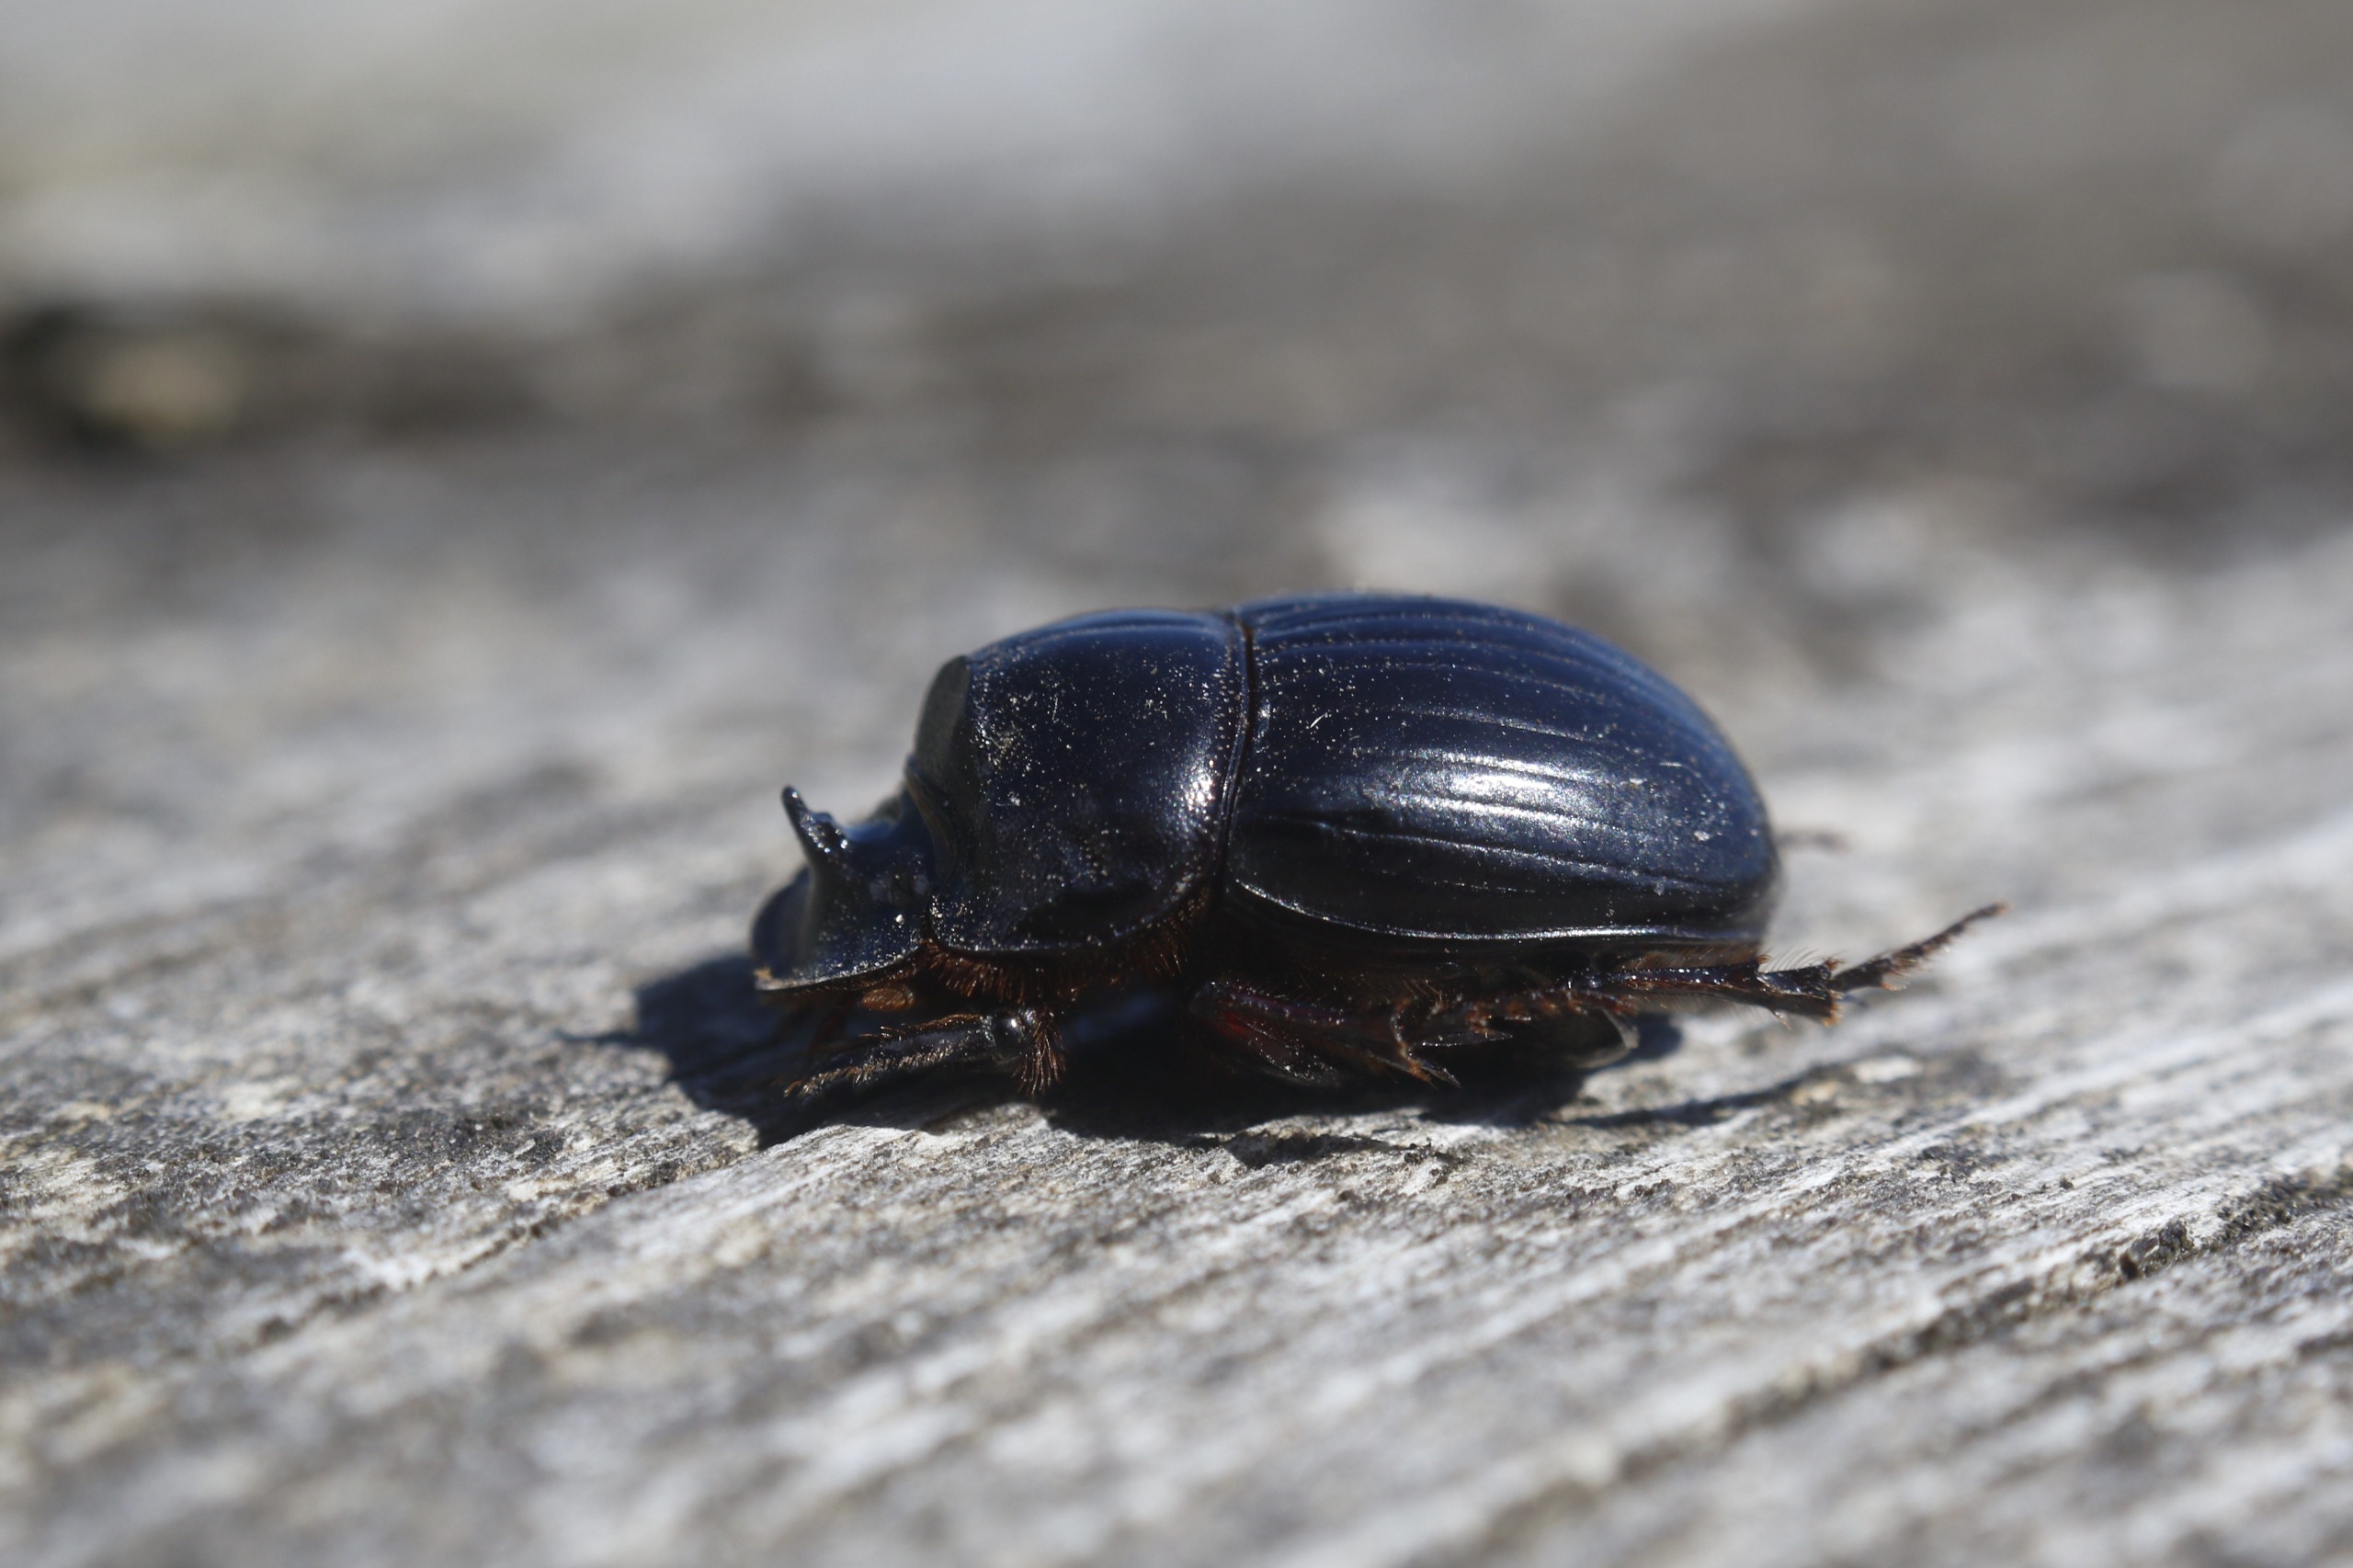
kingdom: Animalia
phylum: Arthropoda
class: Insecta
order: Coleoptera
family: Scarabaeidae
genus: Copris
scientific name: Copris lunaris
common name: Månetorbist
